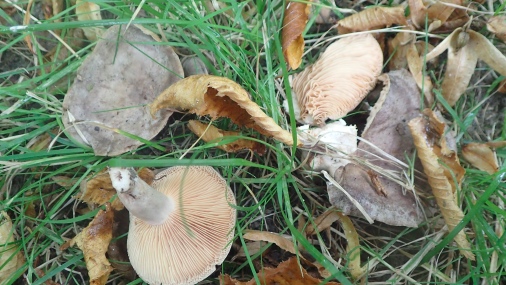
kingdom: Fungi
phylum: Basidiomycota
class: Agaricomycetes
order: Russulales
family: Russulaceae
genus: Lactarius
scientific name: Lactarius circellatus
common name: avnbøg-mælkehat
